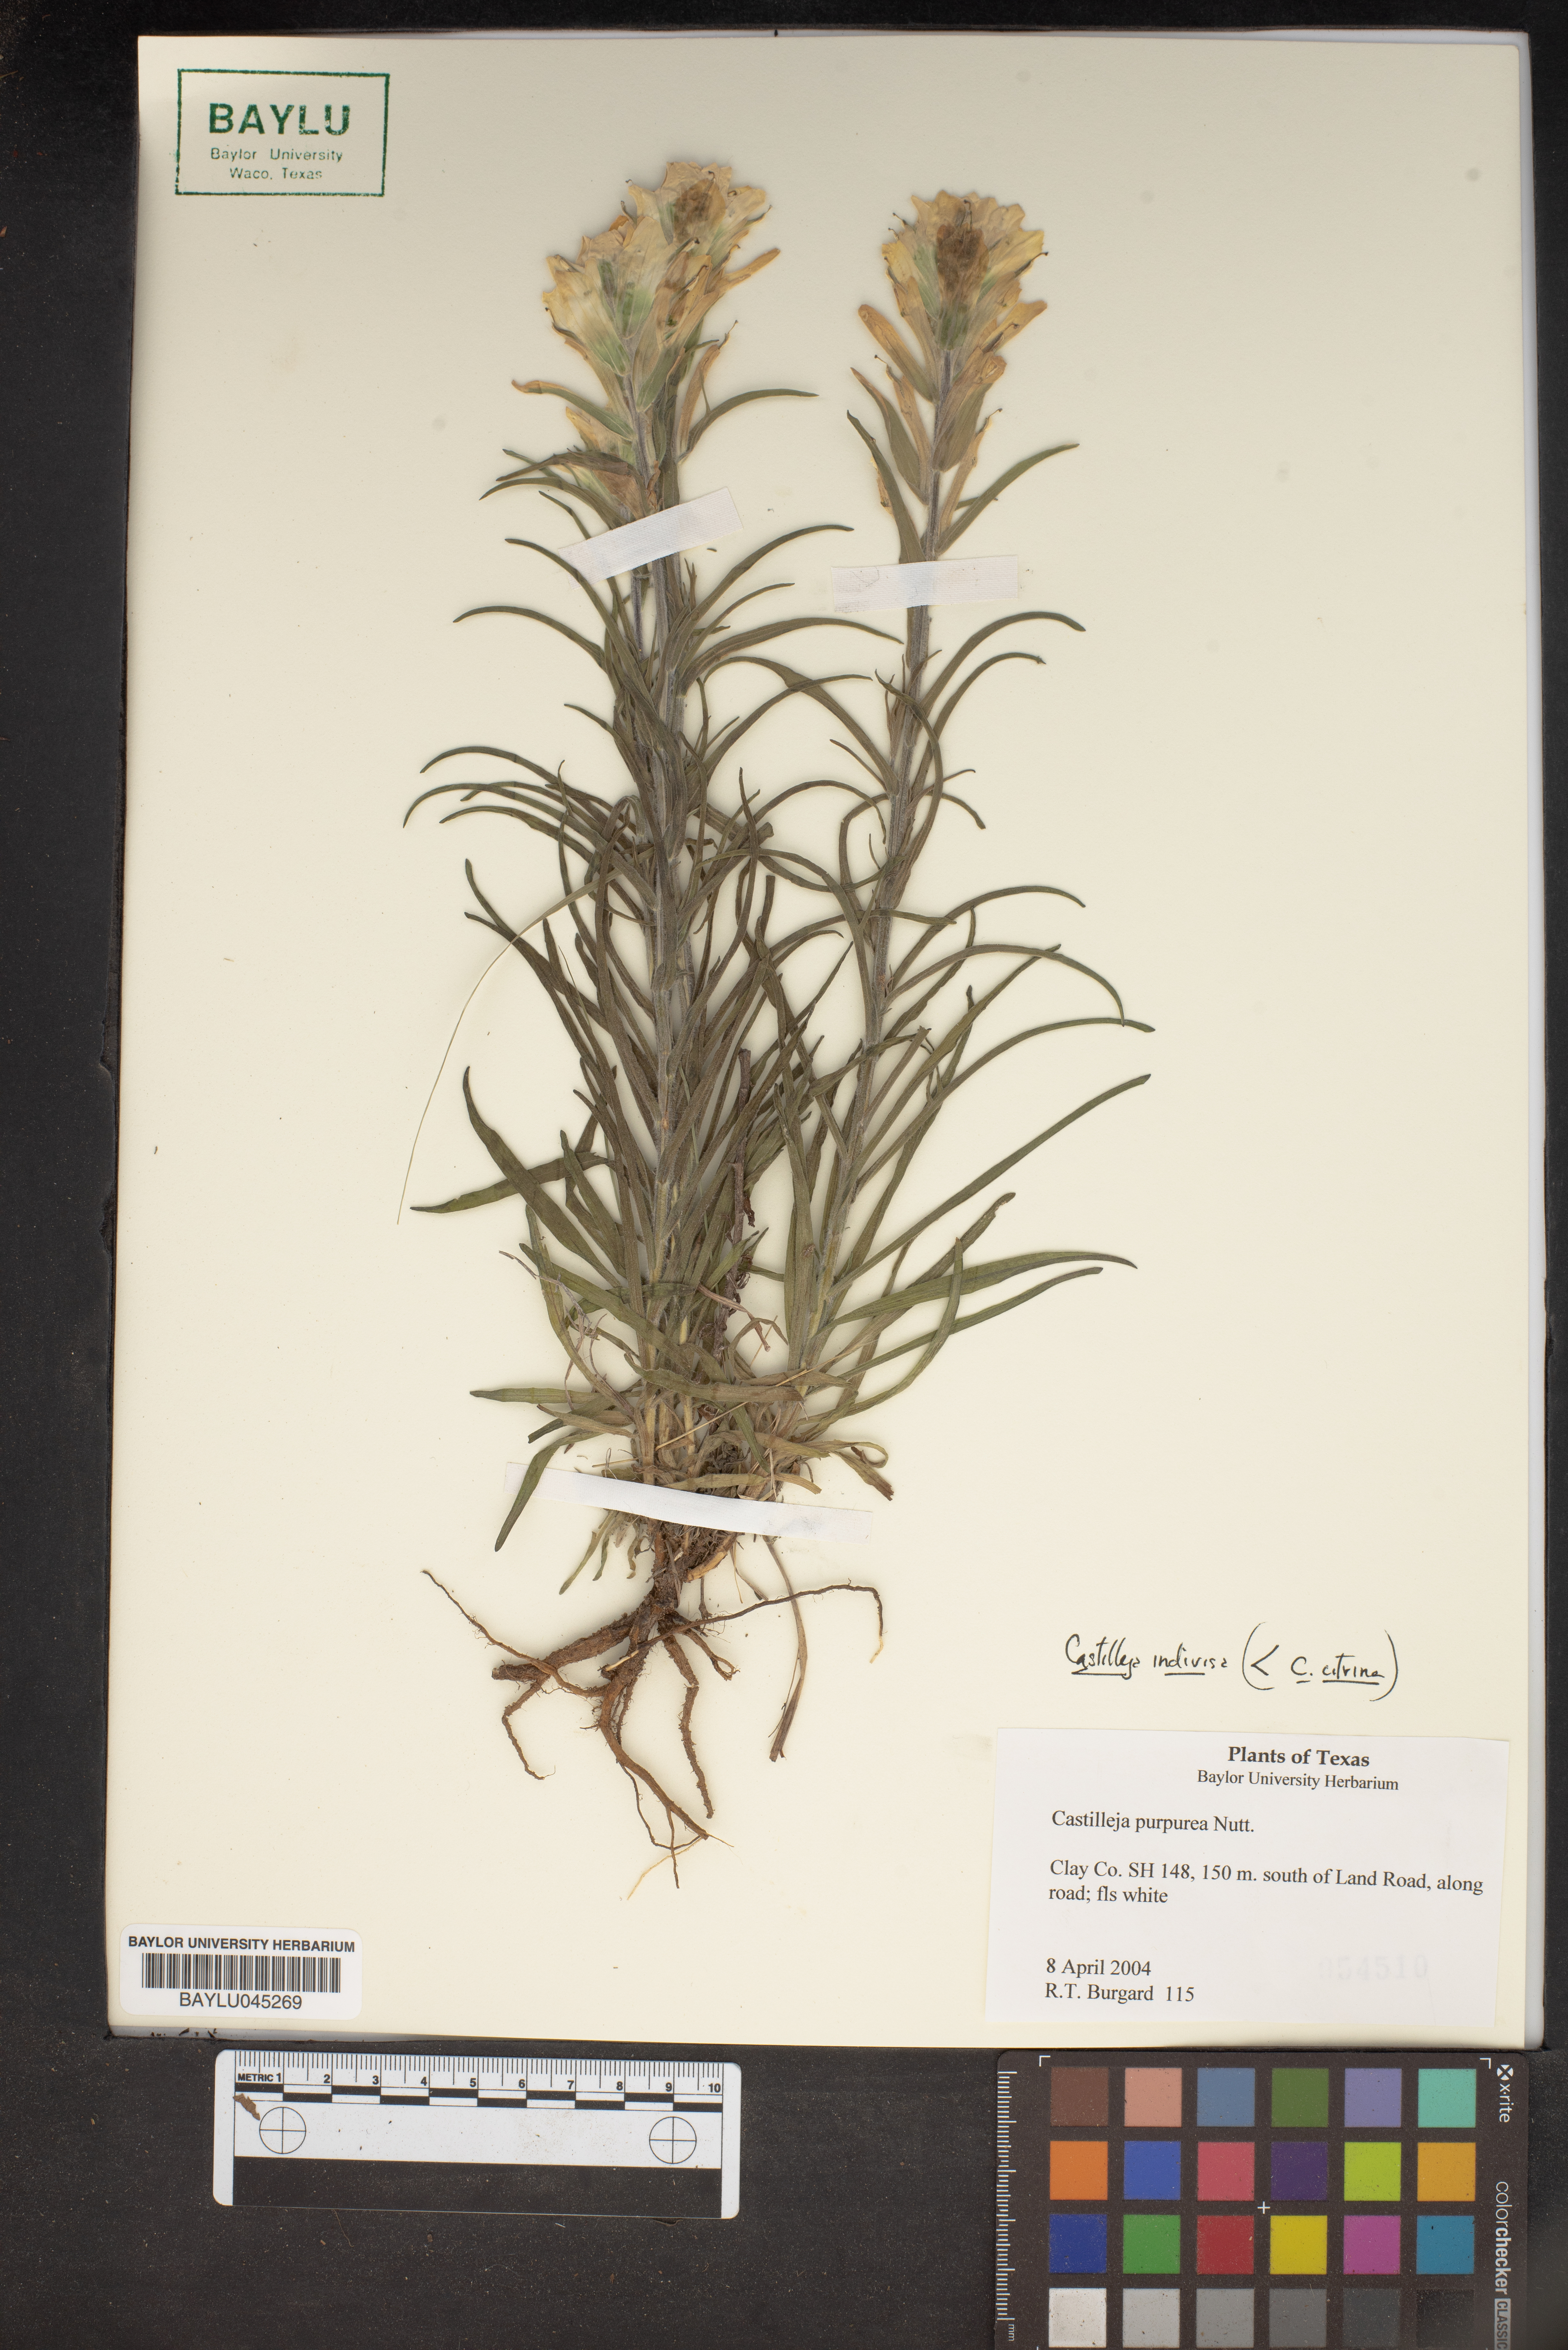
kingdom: Plantae
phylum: Tracheophyta
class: Magnoliopsida
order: Lamiales
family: Orobanchaceae
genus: Castilleja
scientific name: Castilleja purpurea
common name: Plains paintbrush
